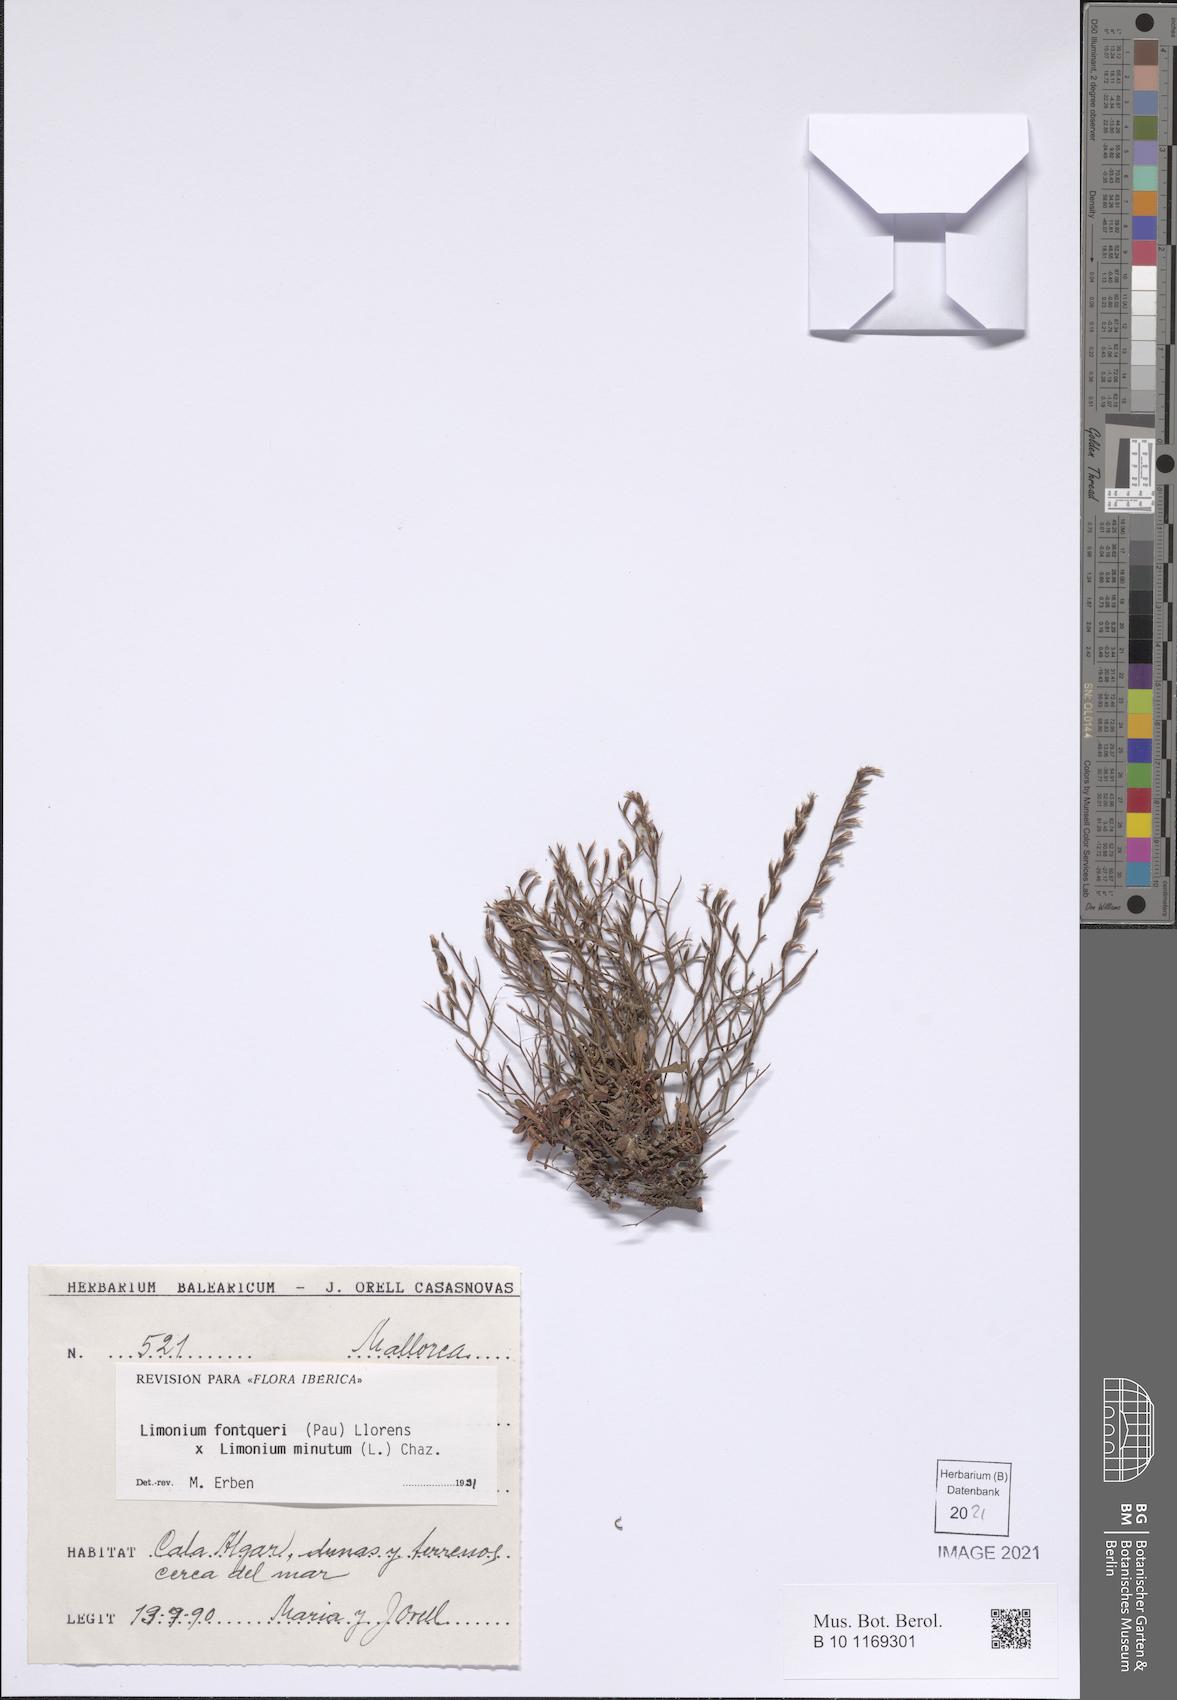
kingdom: Plantae
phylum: Tracheophyta
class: Magnoliopsida
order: Caryophyllales
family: Plumbaginaceae
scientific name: Plumbaginaceae
